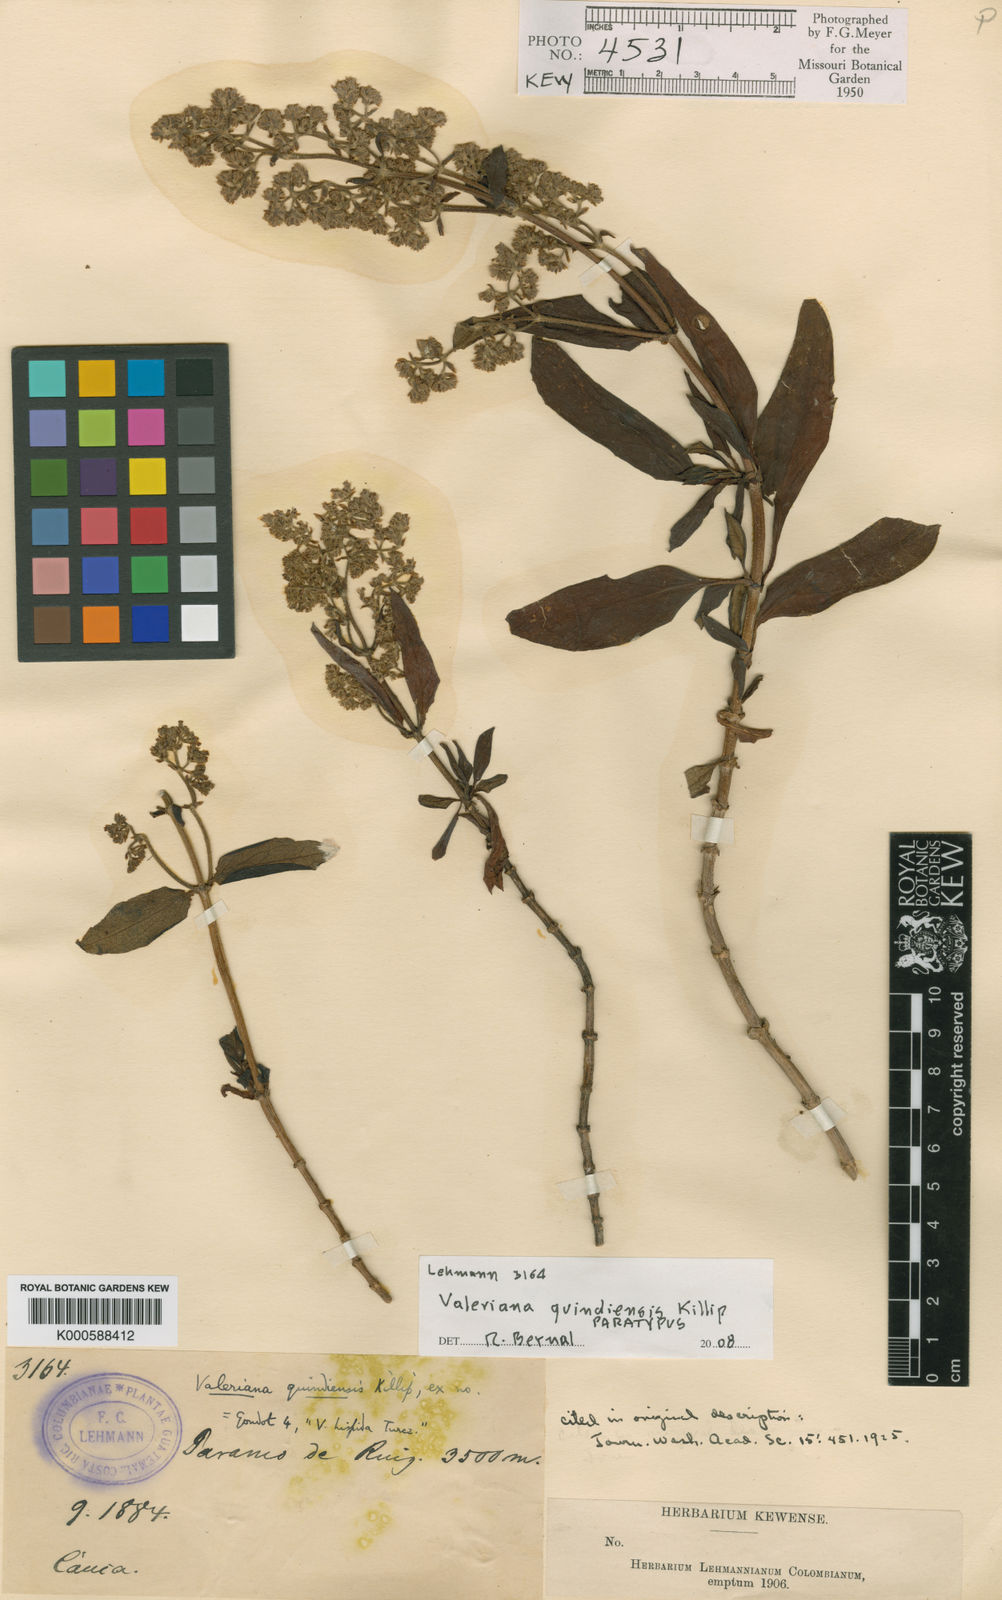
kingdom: Plantae
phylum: Tracheophyta
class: Magnoliopsida
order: Dipsacales
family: Caprifoliaceae
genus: Valeriana
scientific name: Valeriana quindiensis
